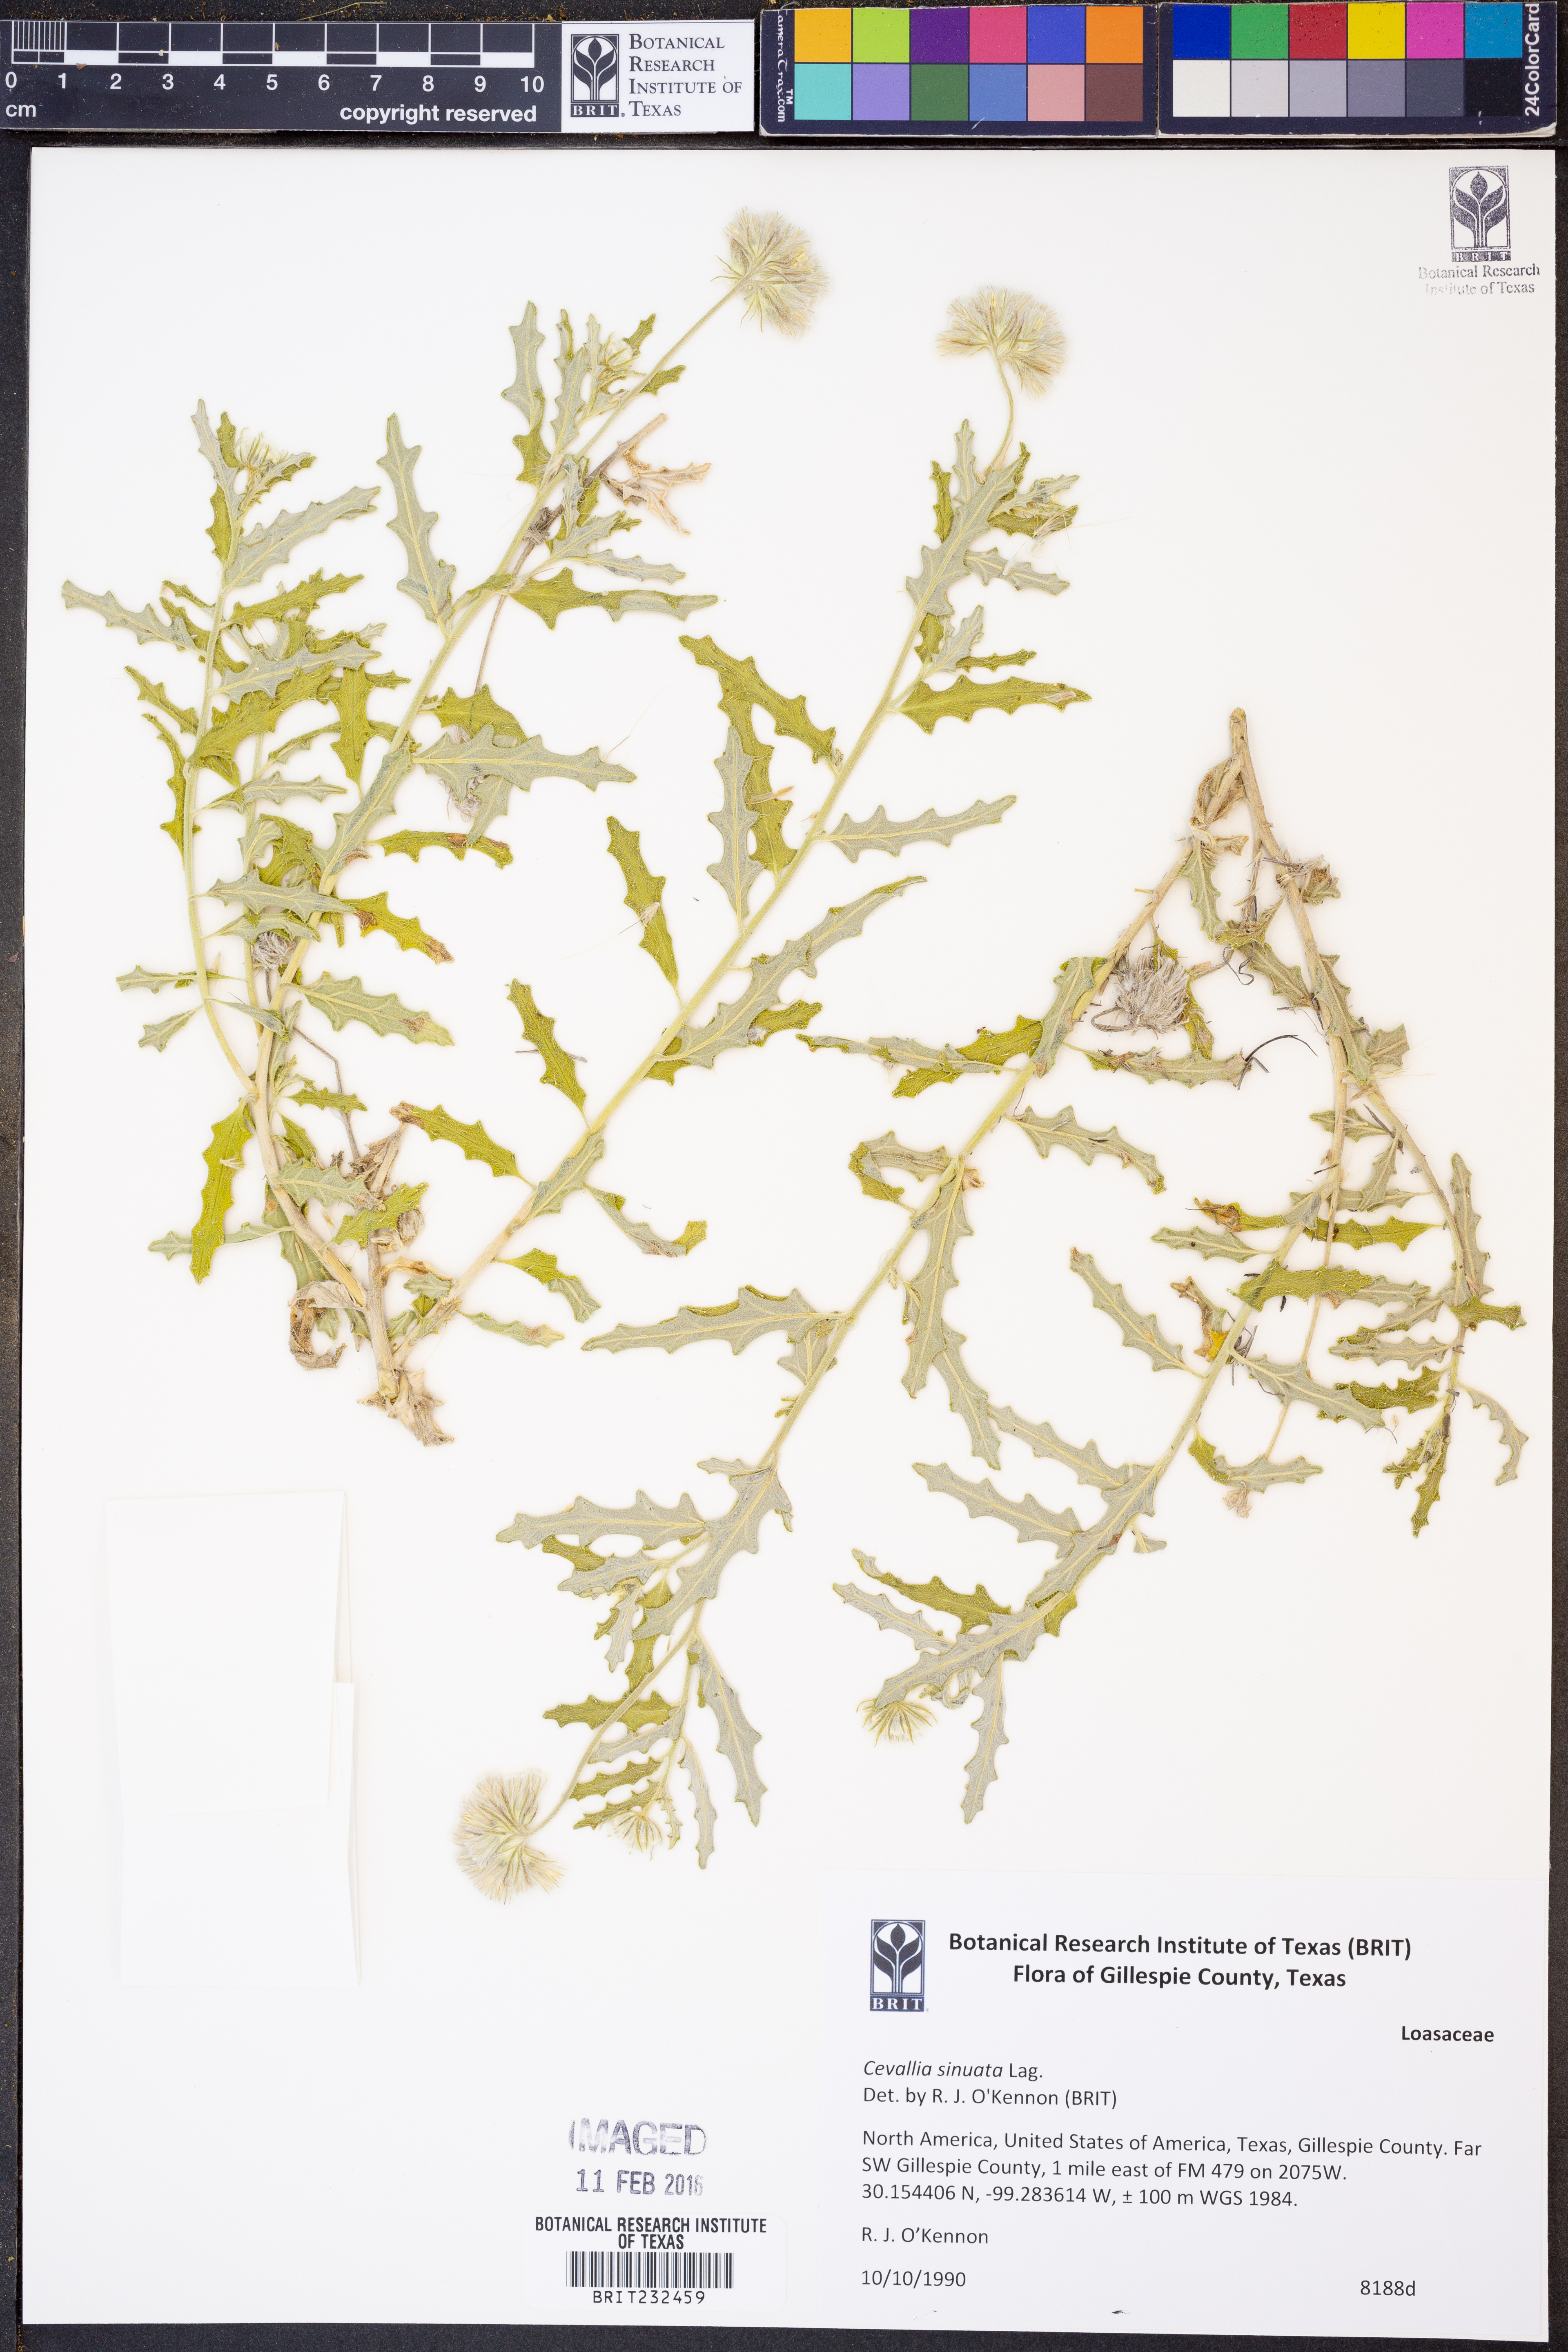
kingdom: Plantae
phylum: Tracheophyta
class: Magnoliopsida
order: Cornales
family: Loasaceae
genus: Cevallia
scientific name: Cevallia sinuata
